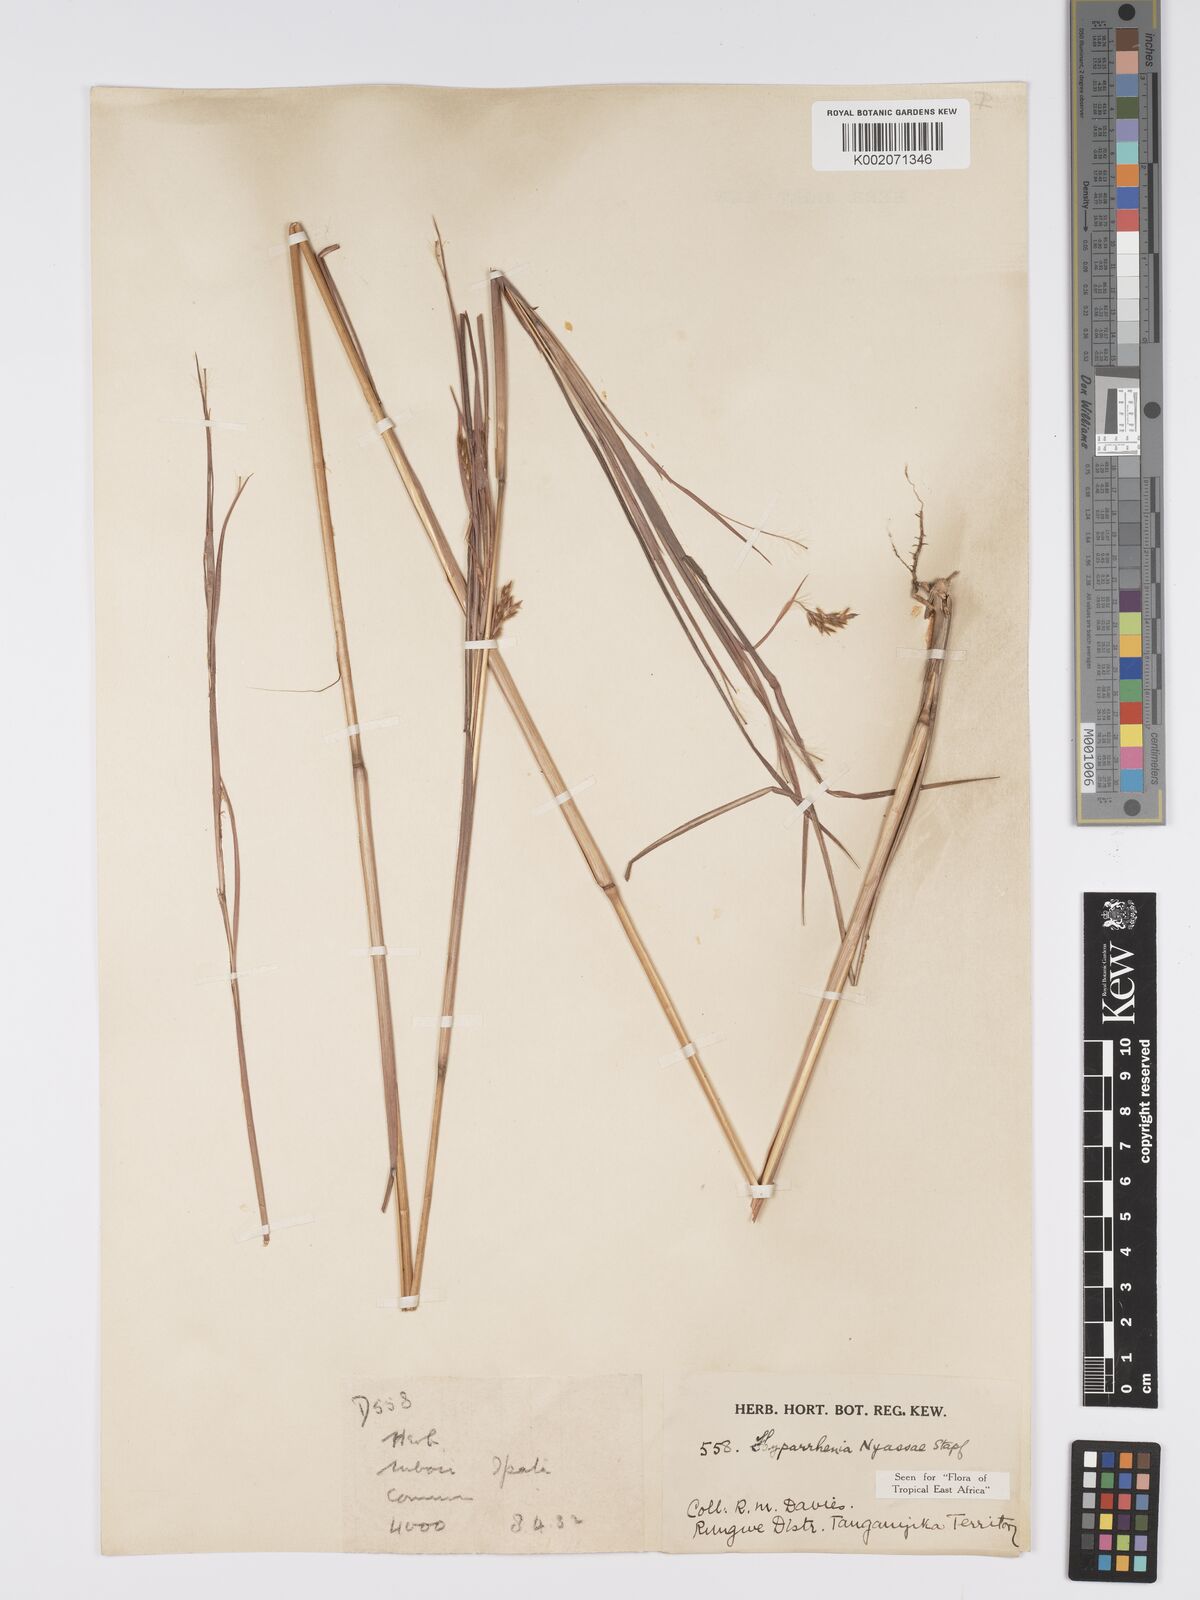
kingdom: Plantae
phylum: Tracheophyta
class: Liliopsida
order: Poales
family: Poaceae
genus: Hyparrhenia
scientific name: Hyparrhenia nyassae
